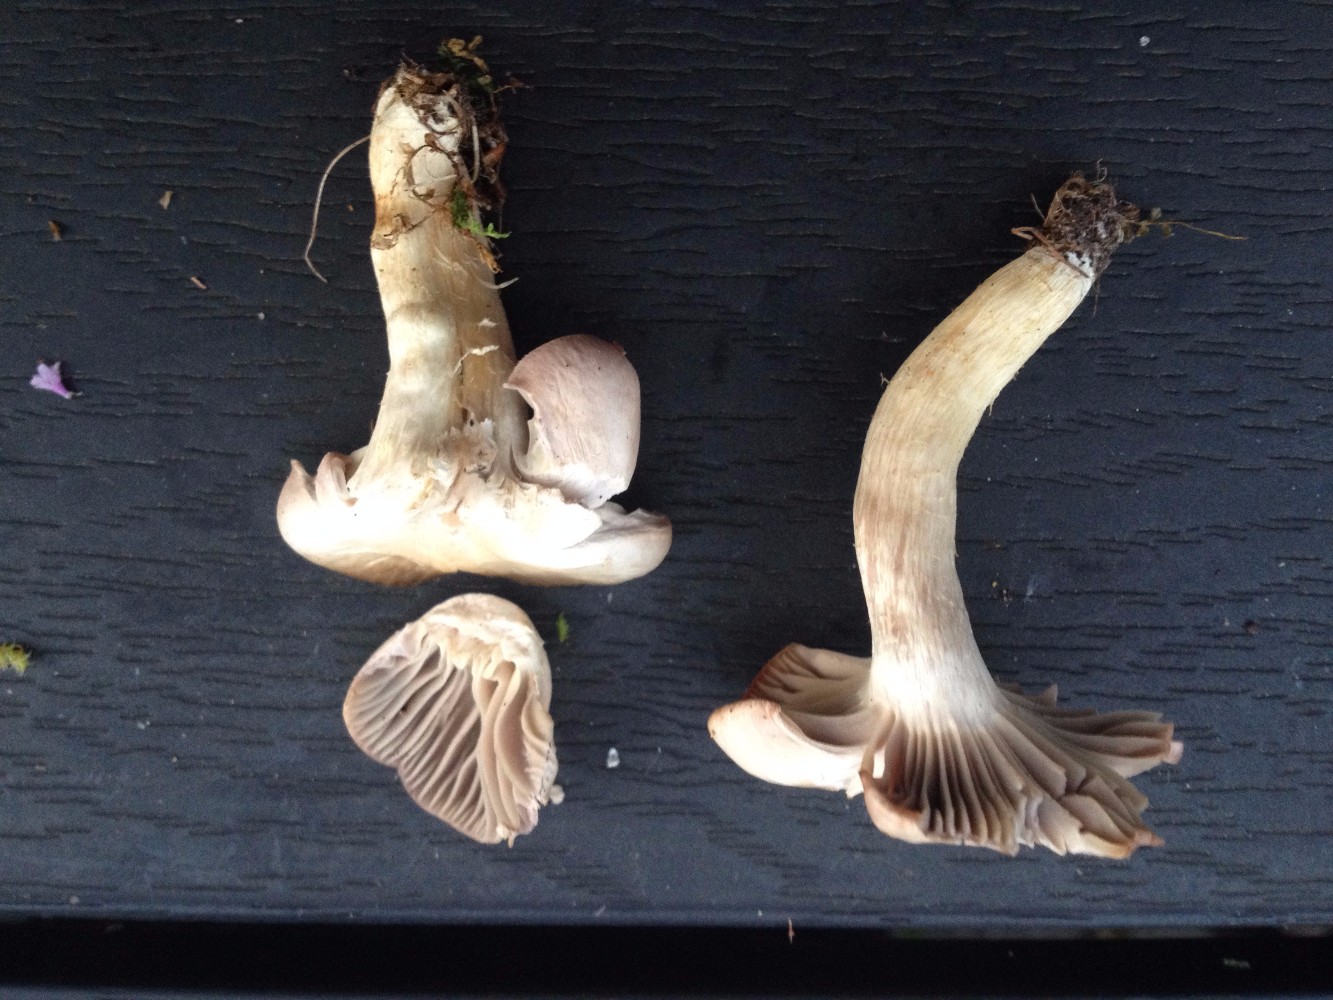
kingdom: Fungi
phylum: Basidiomycota
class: Agaricomycetes
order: Agaricales
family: Hygrophoraceae
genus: Cuphophyllus
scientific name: Cuphophyllus flavipes
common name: gulfodet vokshat
